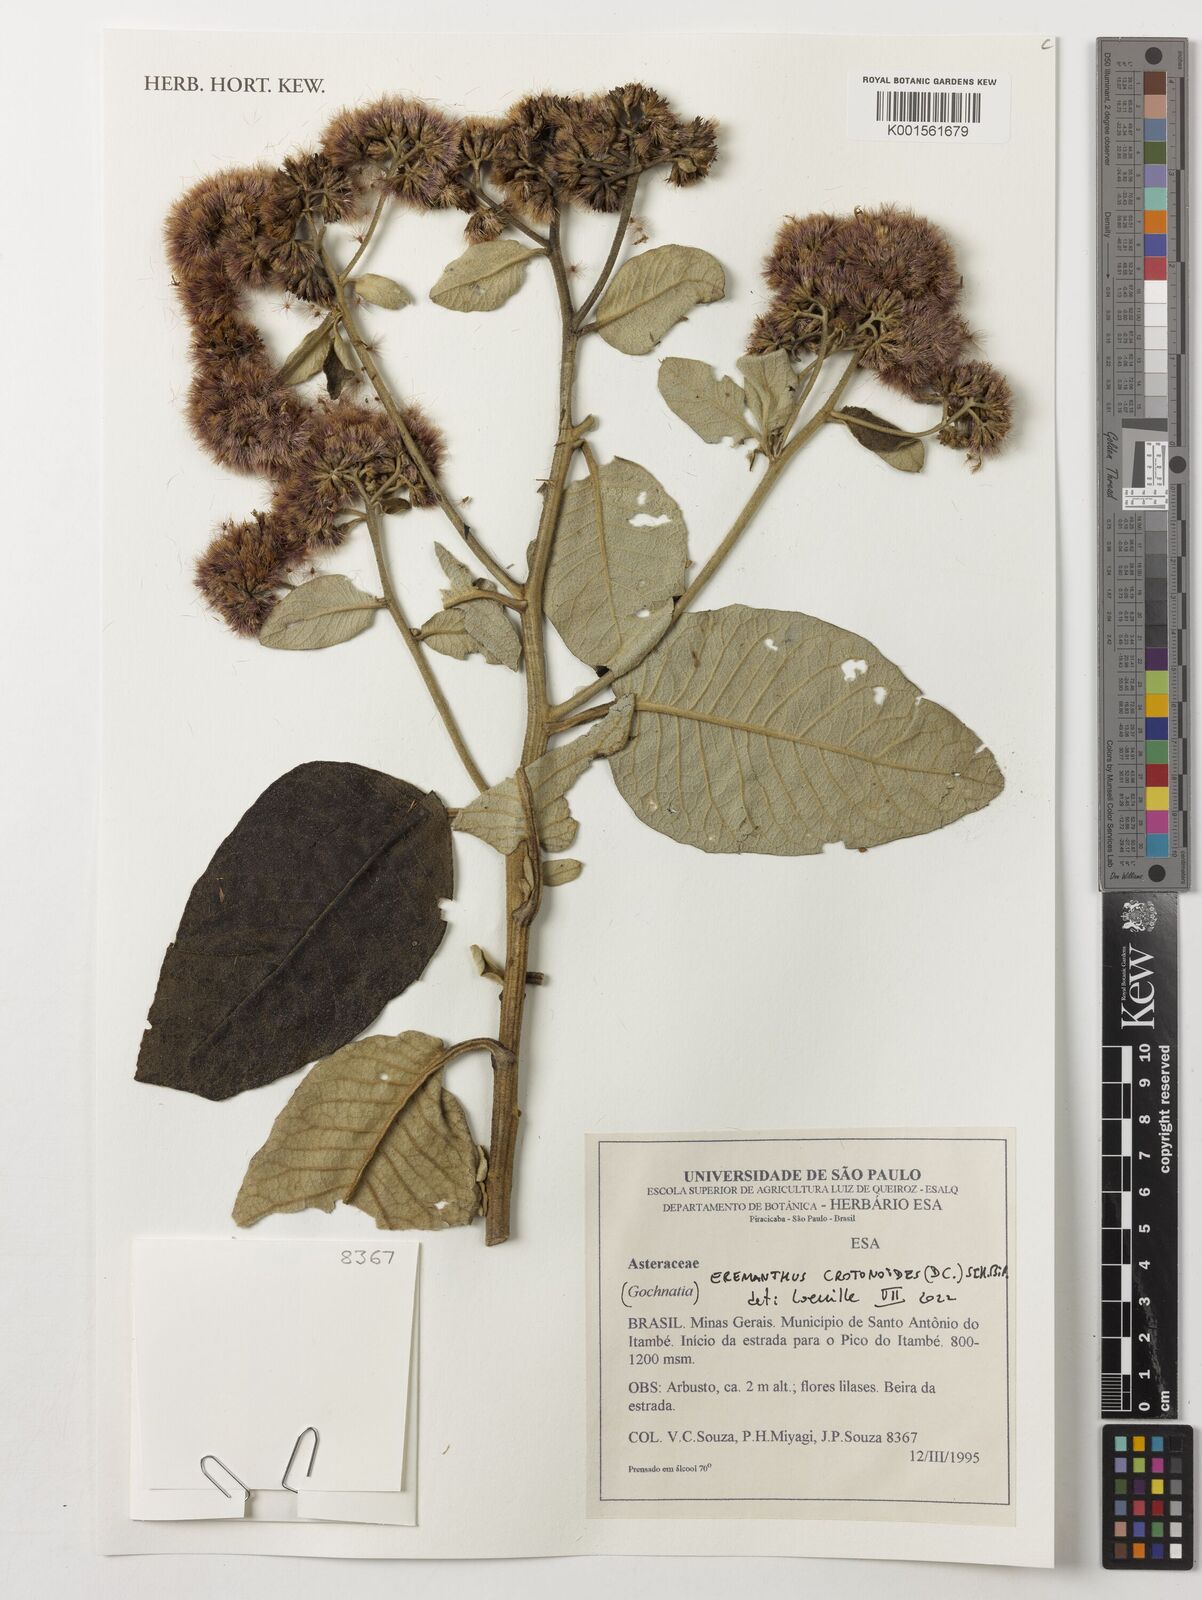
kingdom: Plantae
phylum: Tracheophyta
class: Magnoliopsida
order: Asterales
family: Asteraceae
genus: Eremanthus
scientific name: Eremanthus crotonoides
